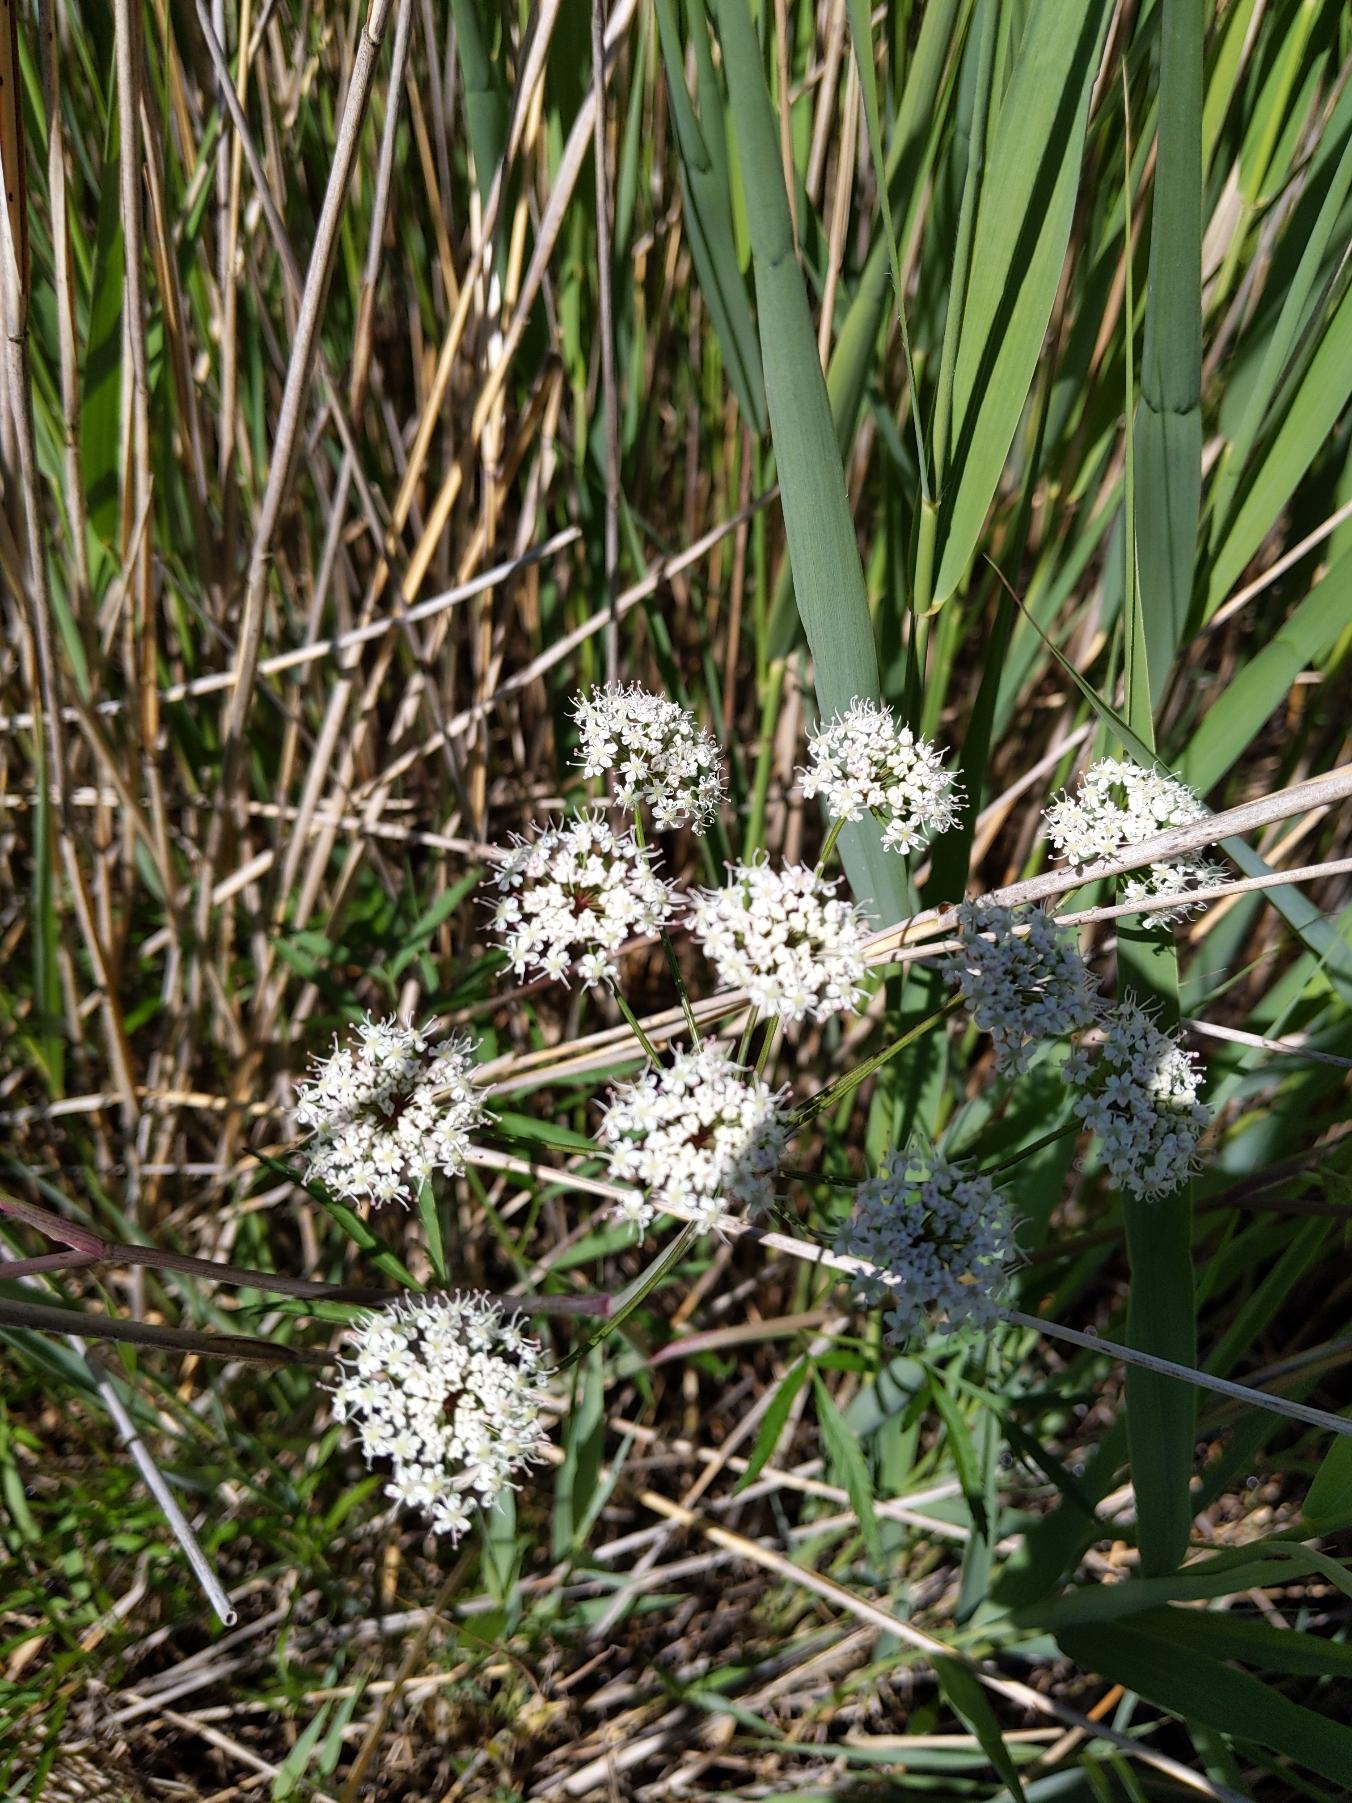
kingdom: Plantae
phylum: Tracheophyta
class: Magnoliopsida
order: Apiales
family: Apiaceae
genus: Cicuta
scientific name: Cicuta virosa
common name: Gifttyde
